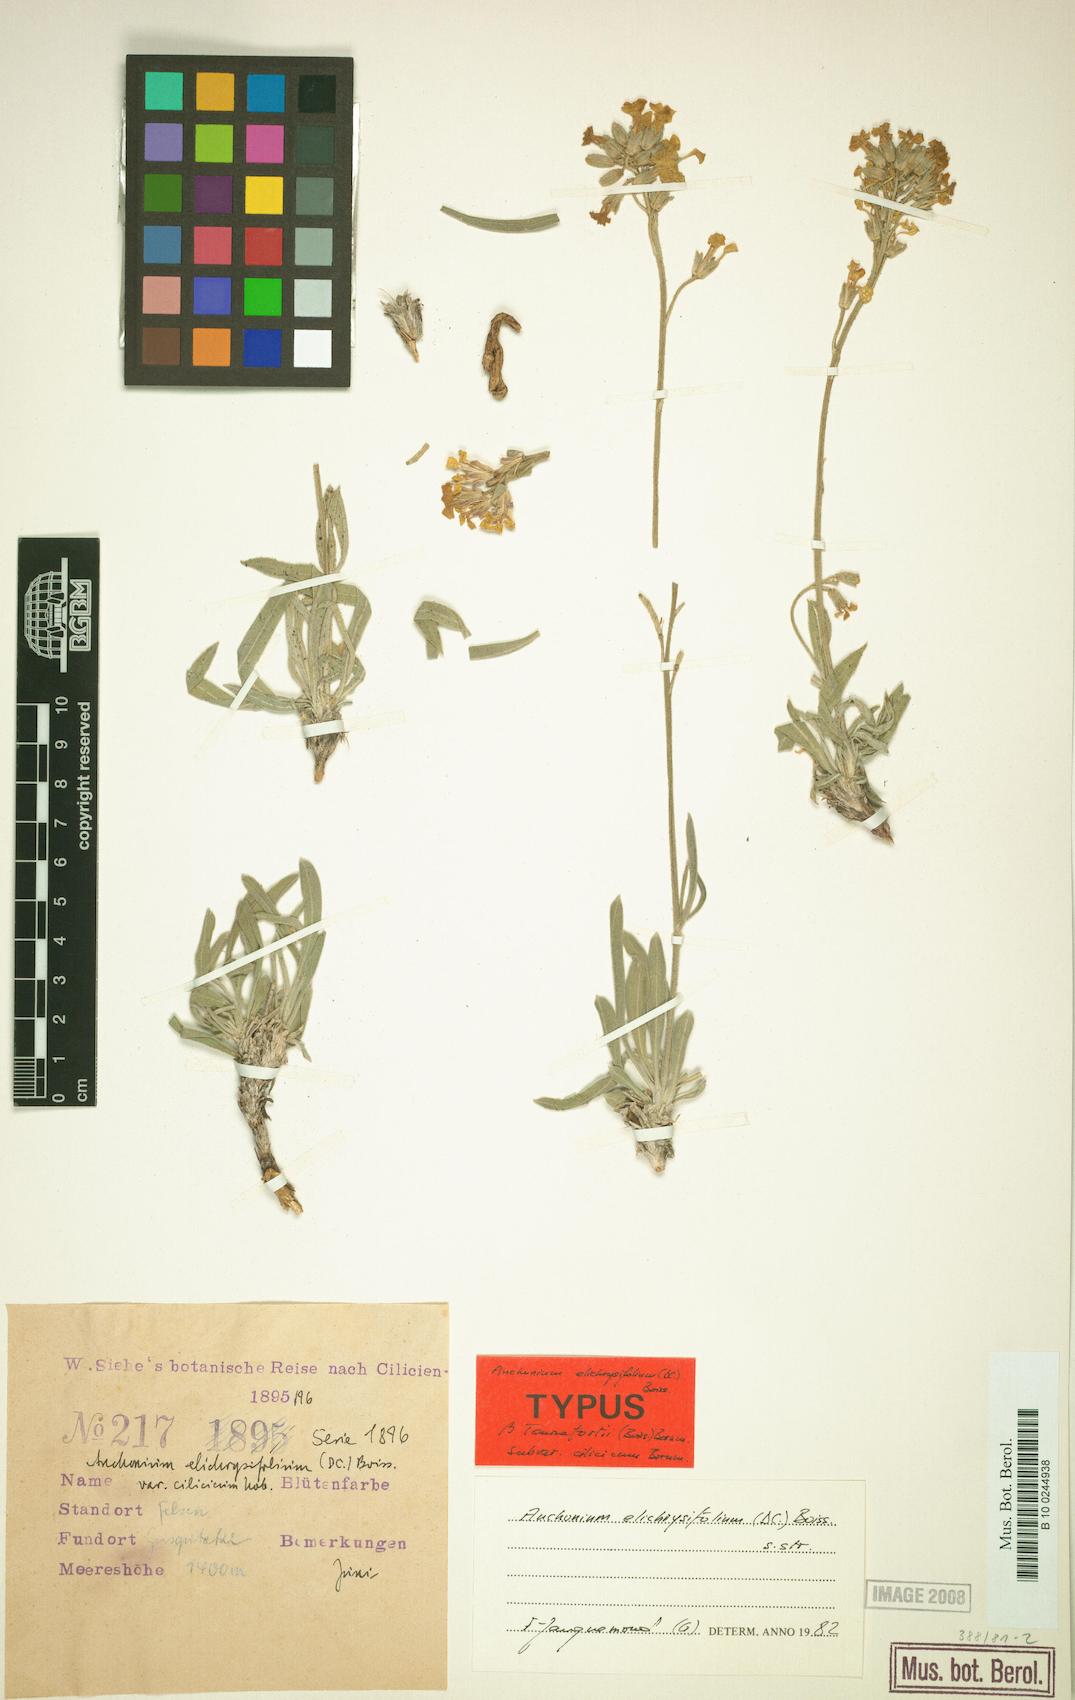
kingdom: Plantae
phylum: Tracheophyta
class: Magnoliopsida
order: Brassicales
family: Brassicaceae
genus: Anchonium
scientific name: Anchonium elichrysifolium
